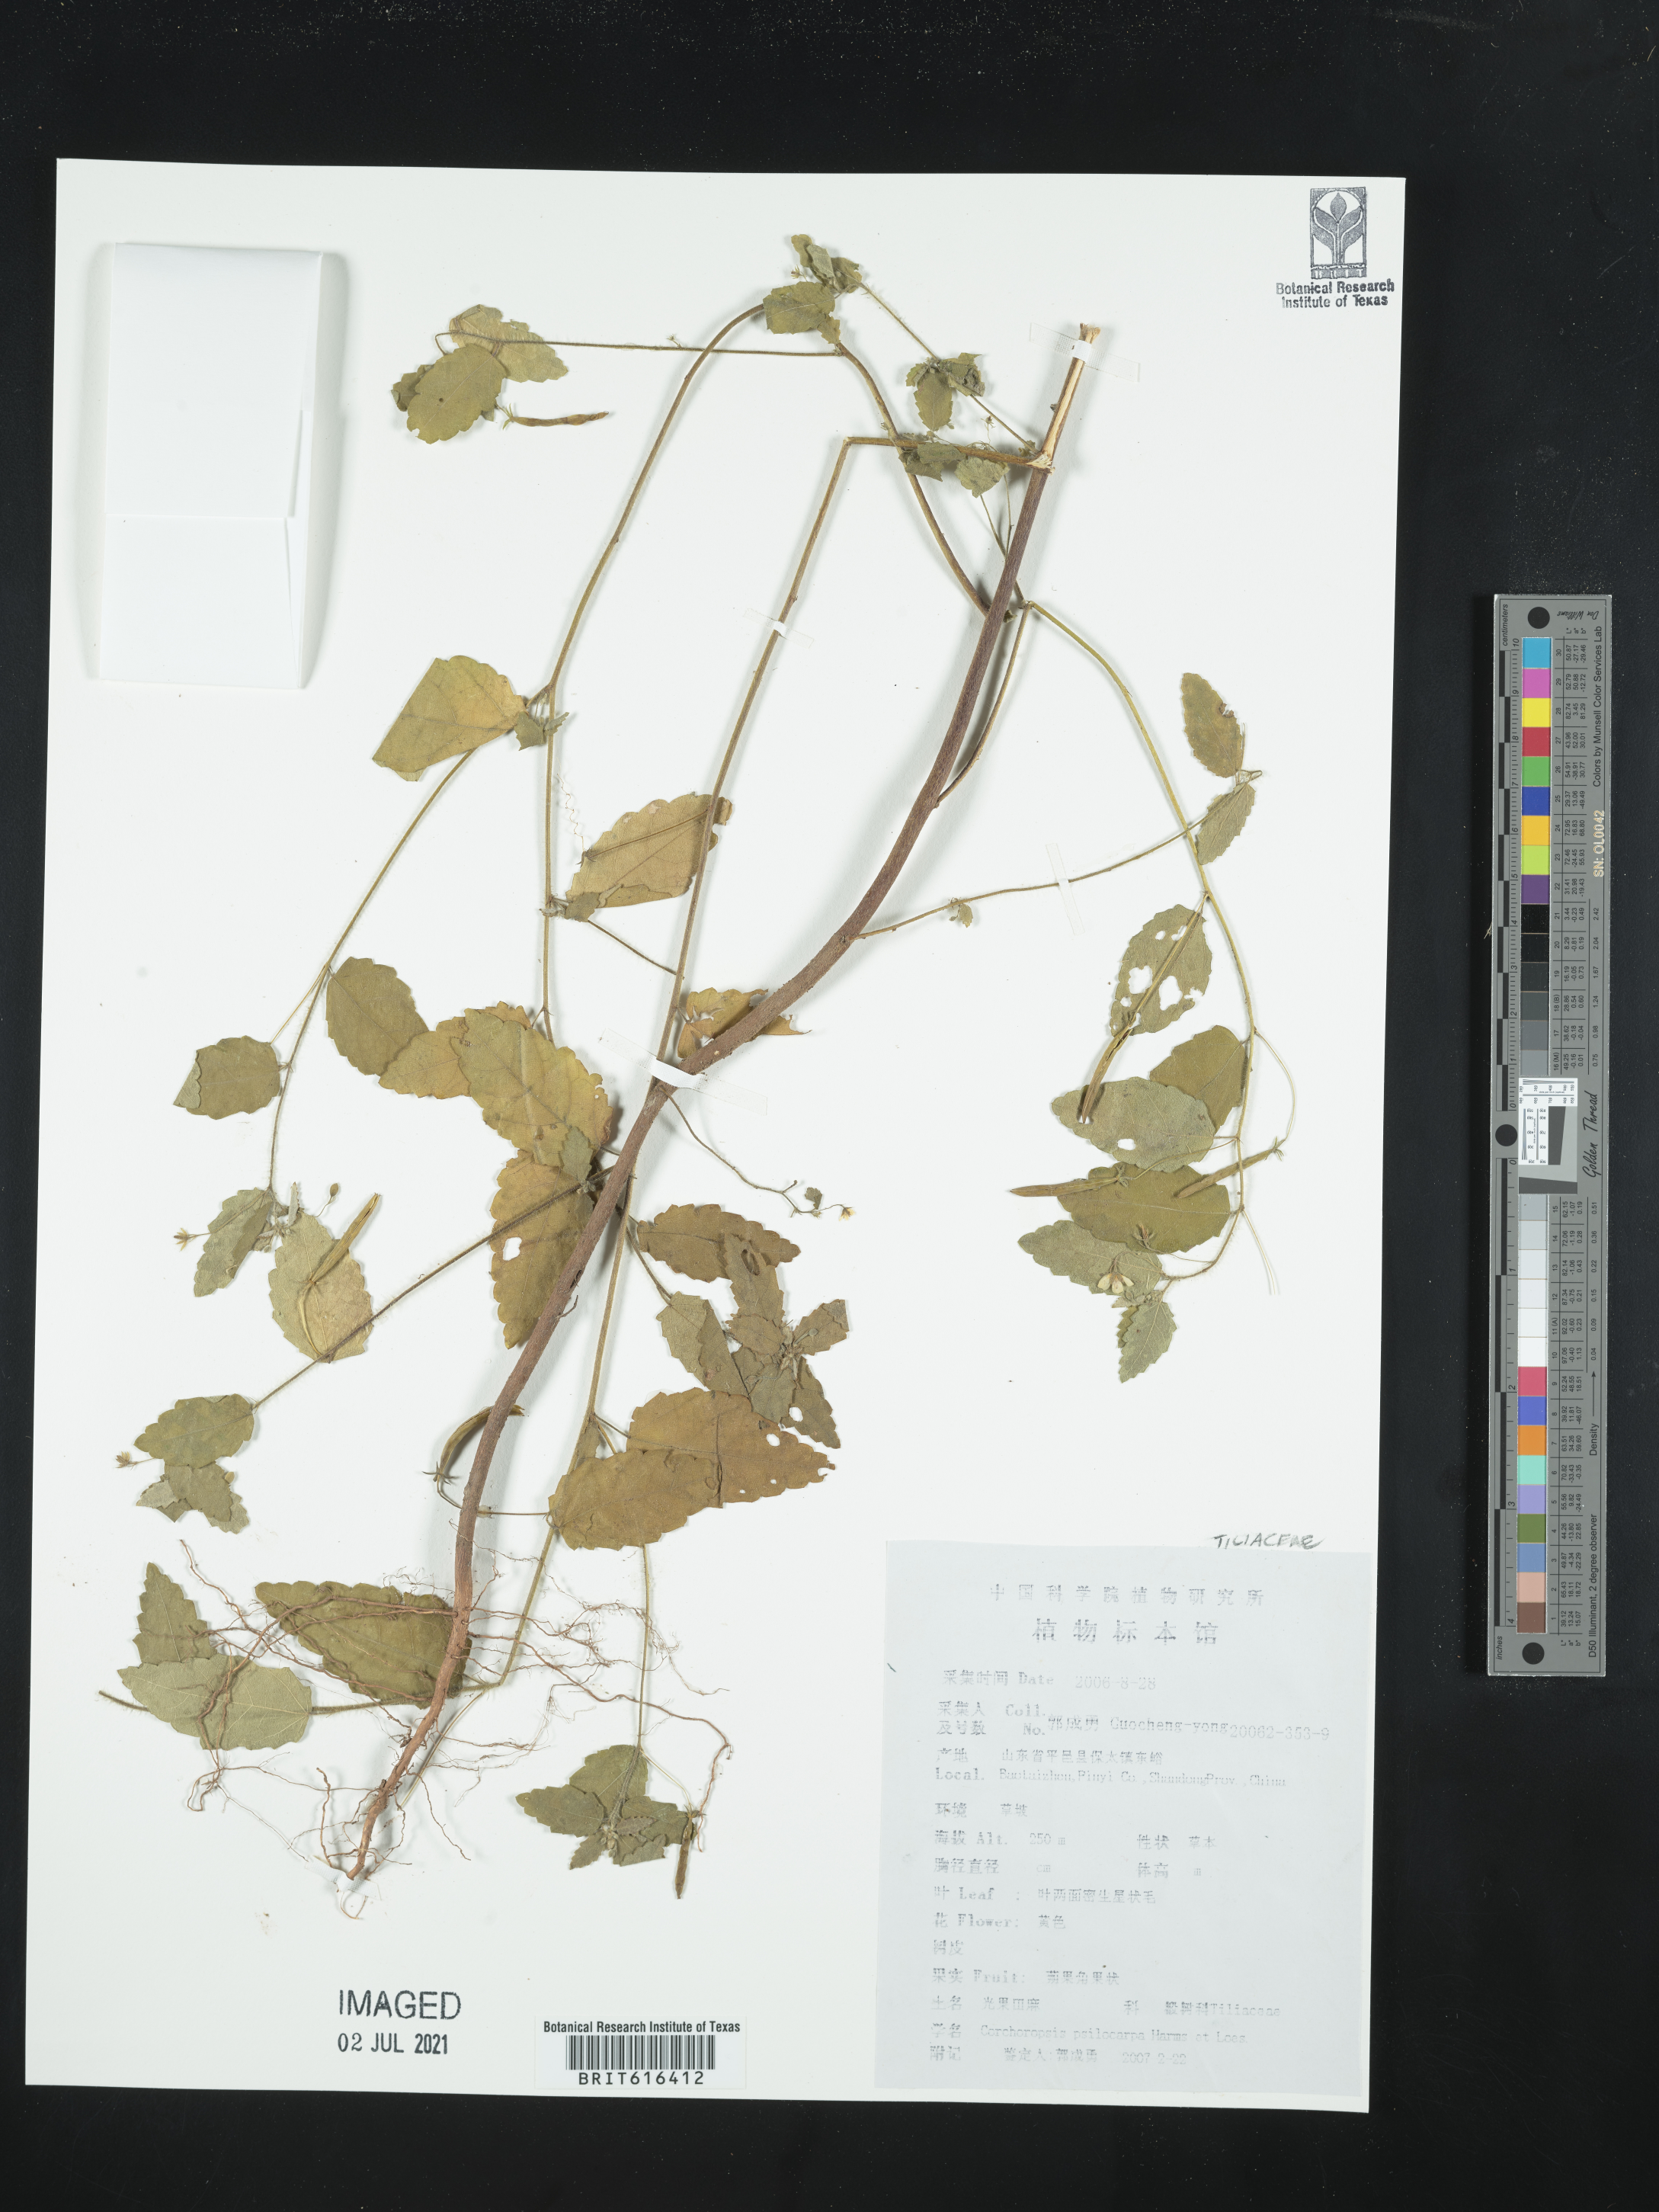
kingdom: Plantae
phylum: Tracheophyta
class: Magnoliopsida
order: Malvales
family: Malvaceae
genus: Corchoropsis
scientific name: Corchoropsis crenata
